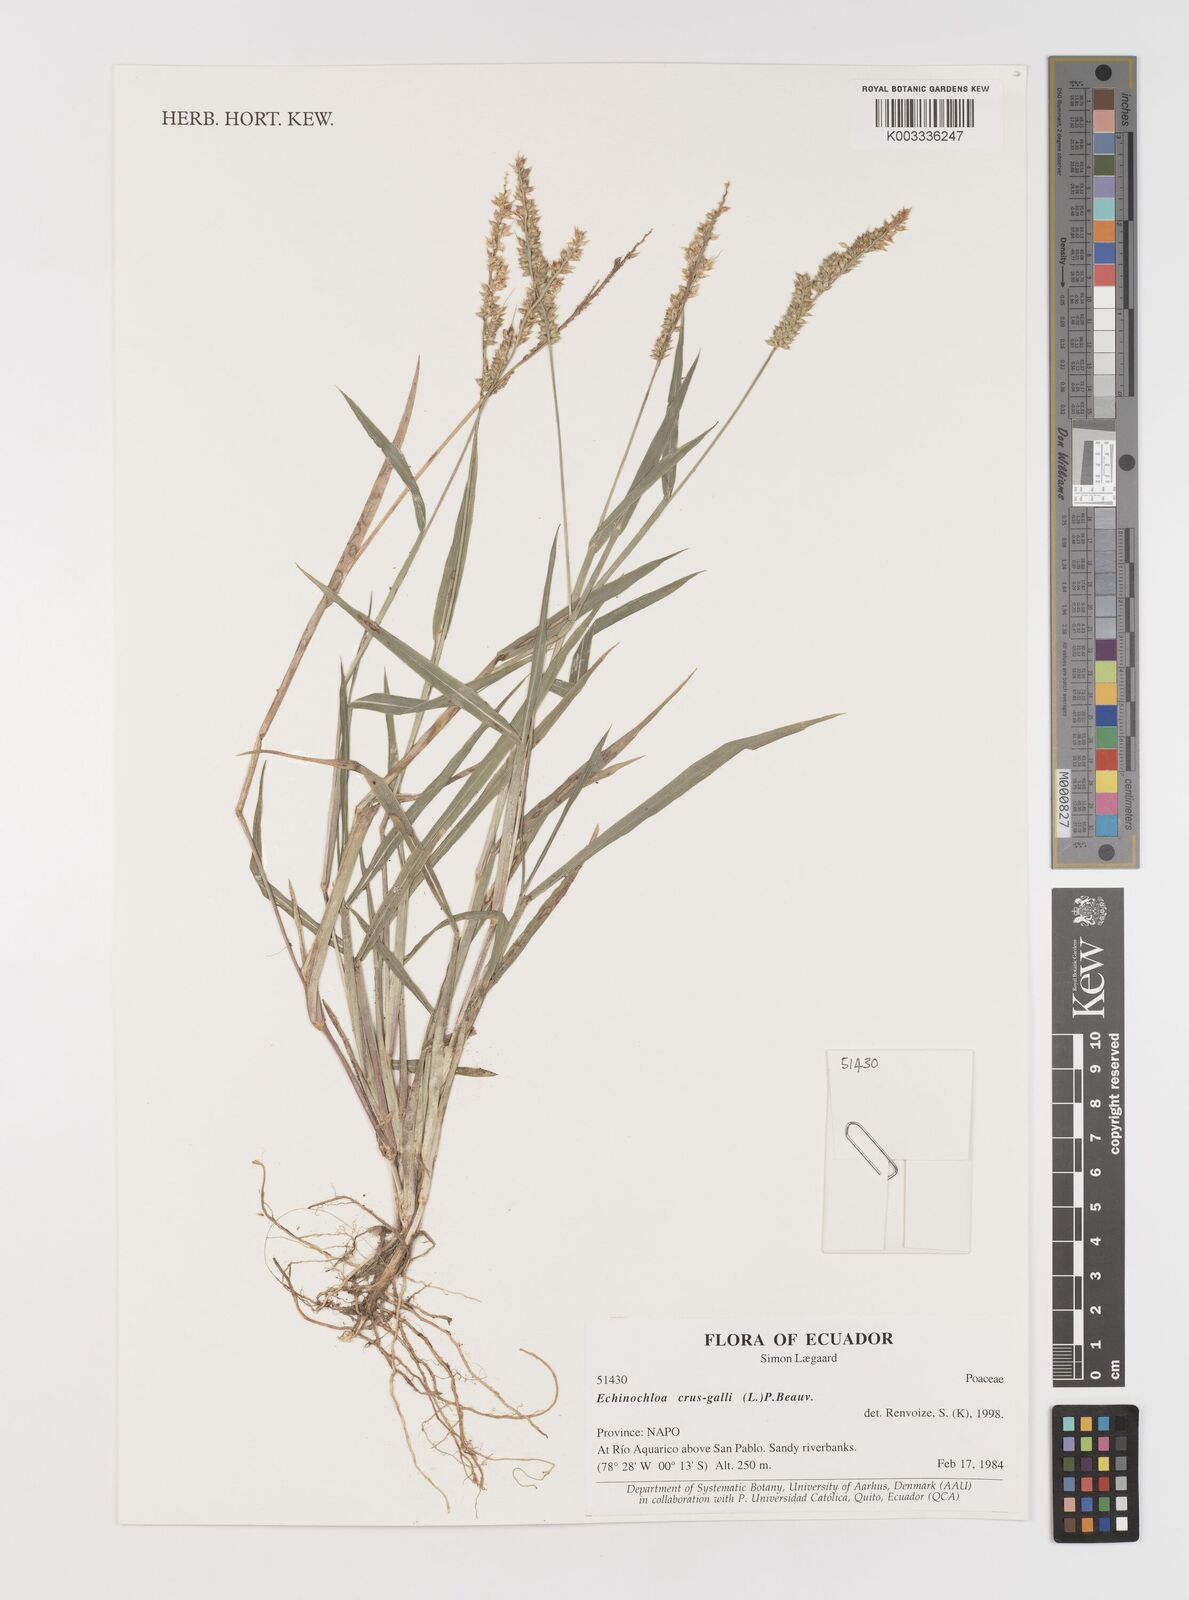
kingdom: Plantae
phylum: Tracheophyta
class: Liliopsida
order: Poales
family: Poaceae
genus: Echinochloa
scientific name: Echinochloa crus-galli
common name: Cockspur
